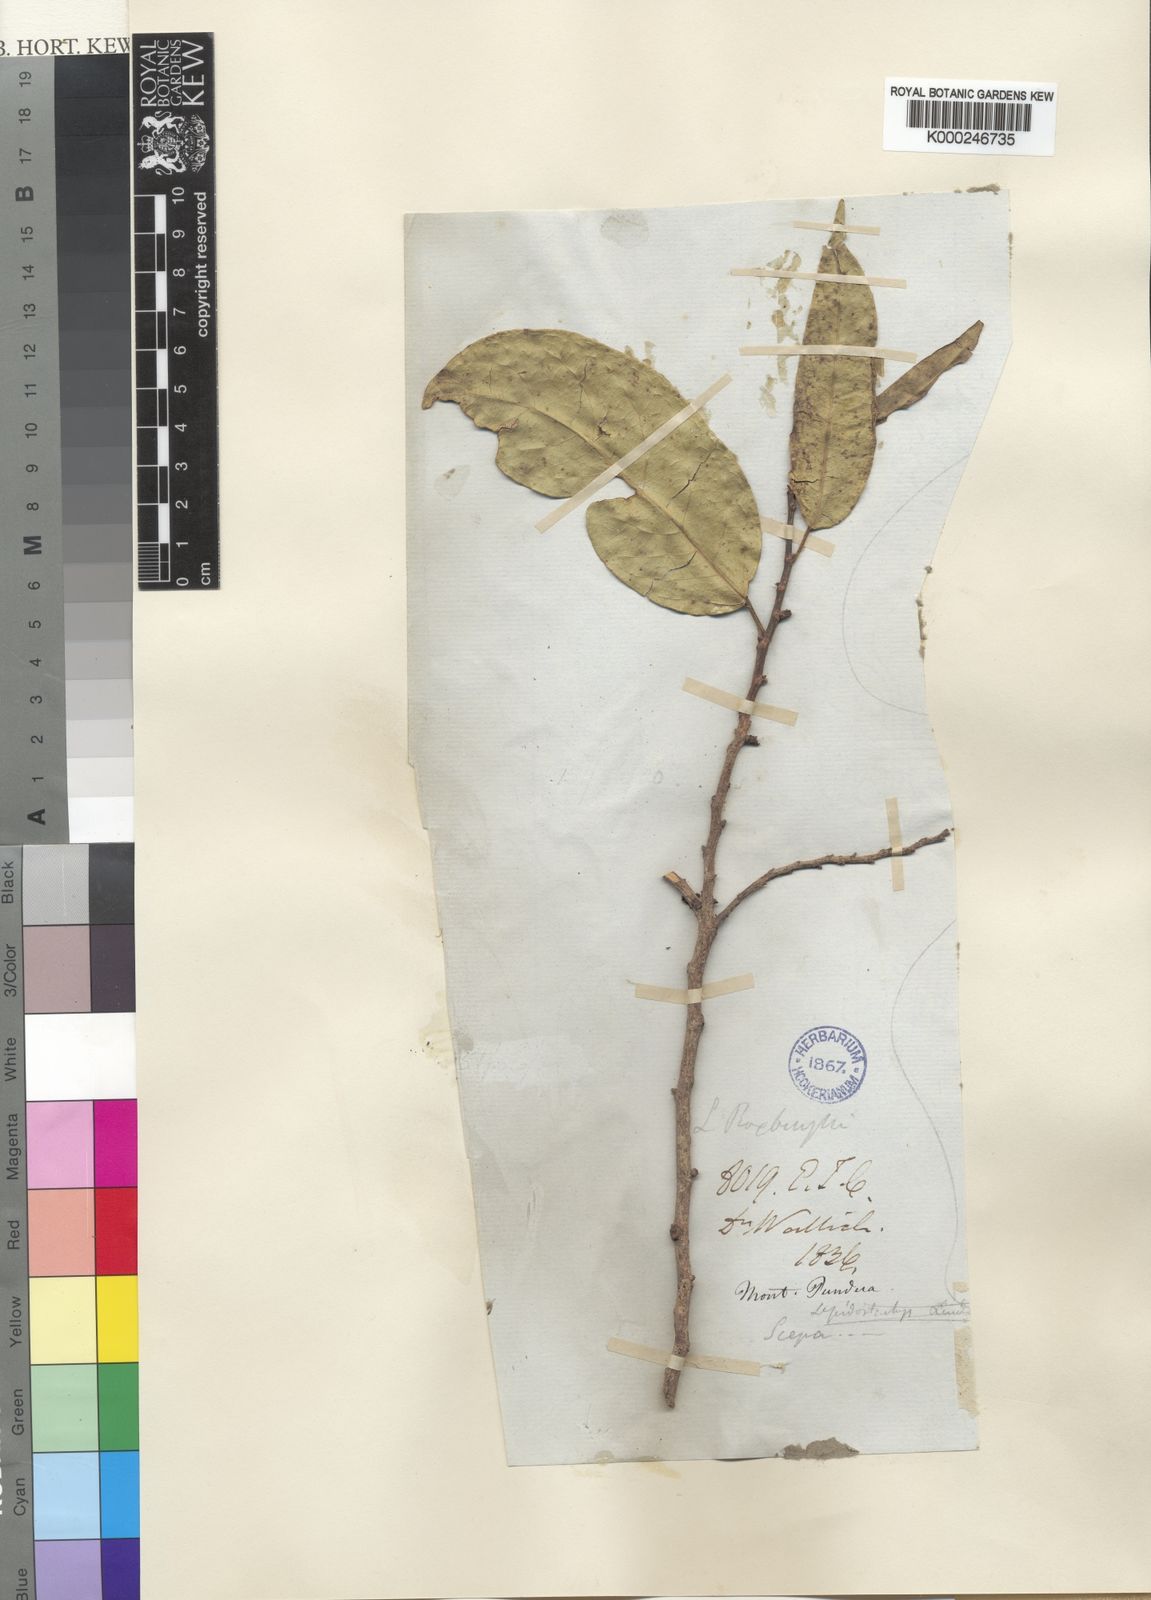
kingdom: Plantae
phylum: Tracheophyta
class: Magnoliopsida
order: Malpighiales
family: Phyllanthaceae
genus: Aporosa
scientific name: Aporosa wallichii
